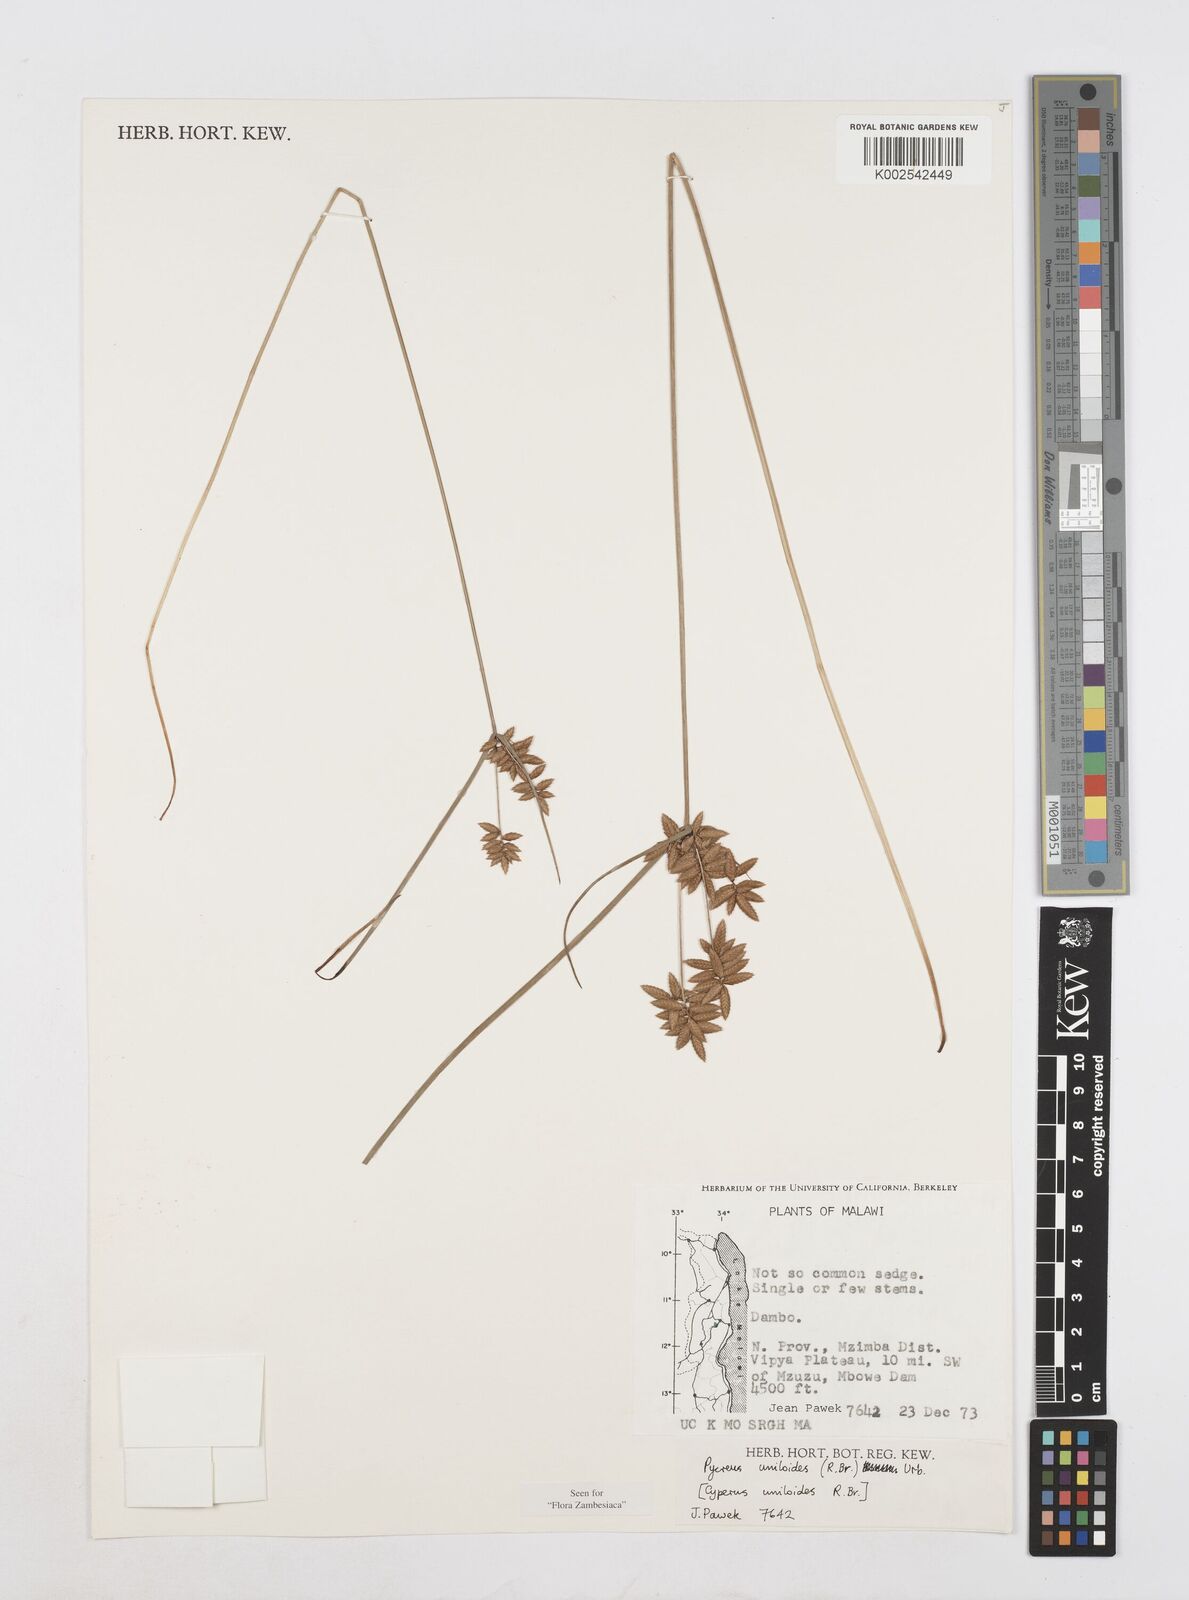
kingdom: Plantae
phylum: Tracheophyta
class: Liliopsida
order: Poales
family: Cyperaceae
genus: Cyperus
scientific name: Cyperus unioloides
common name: Uniola flatsedge
